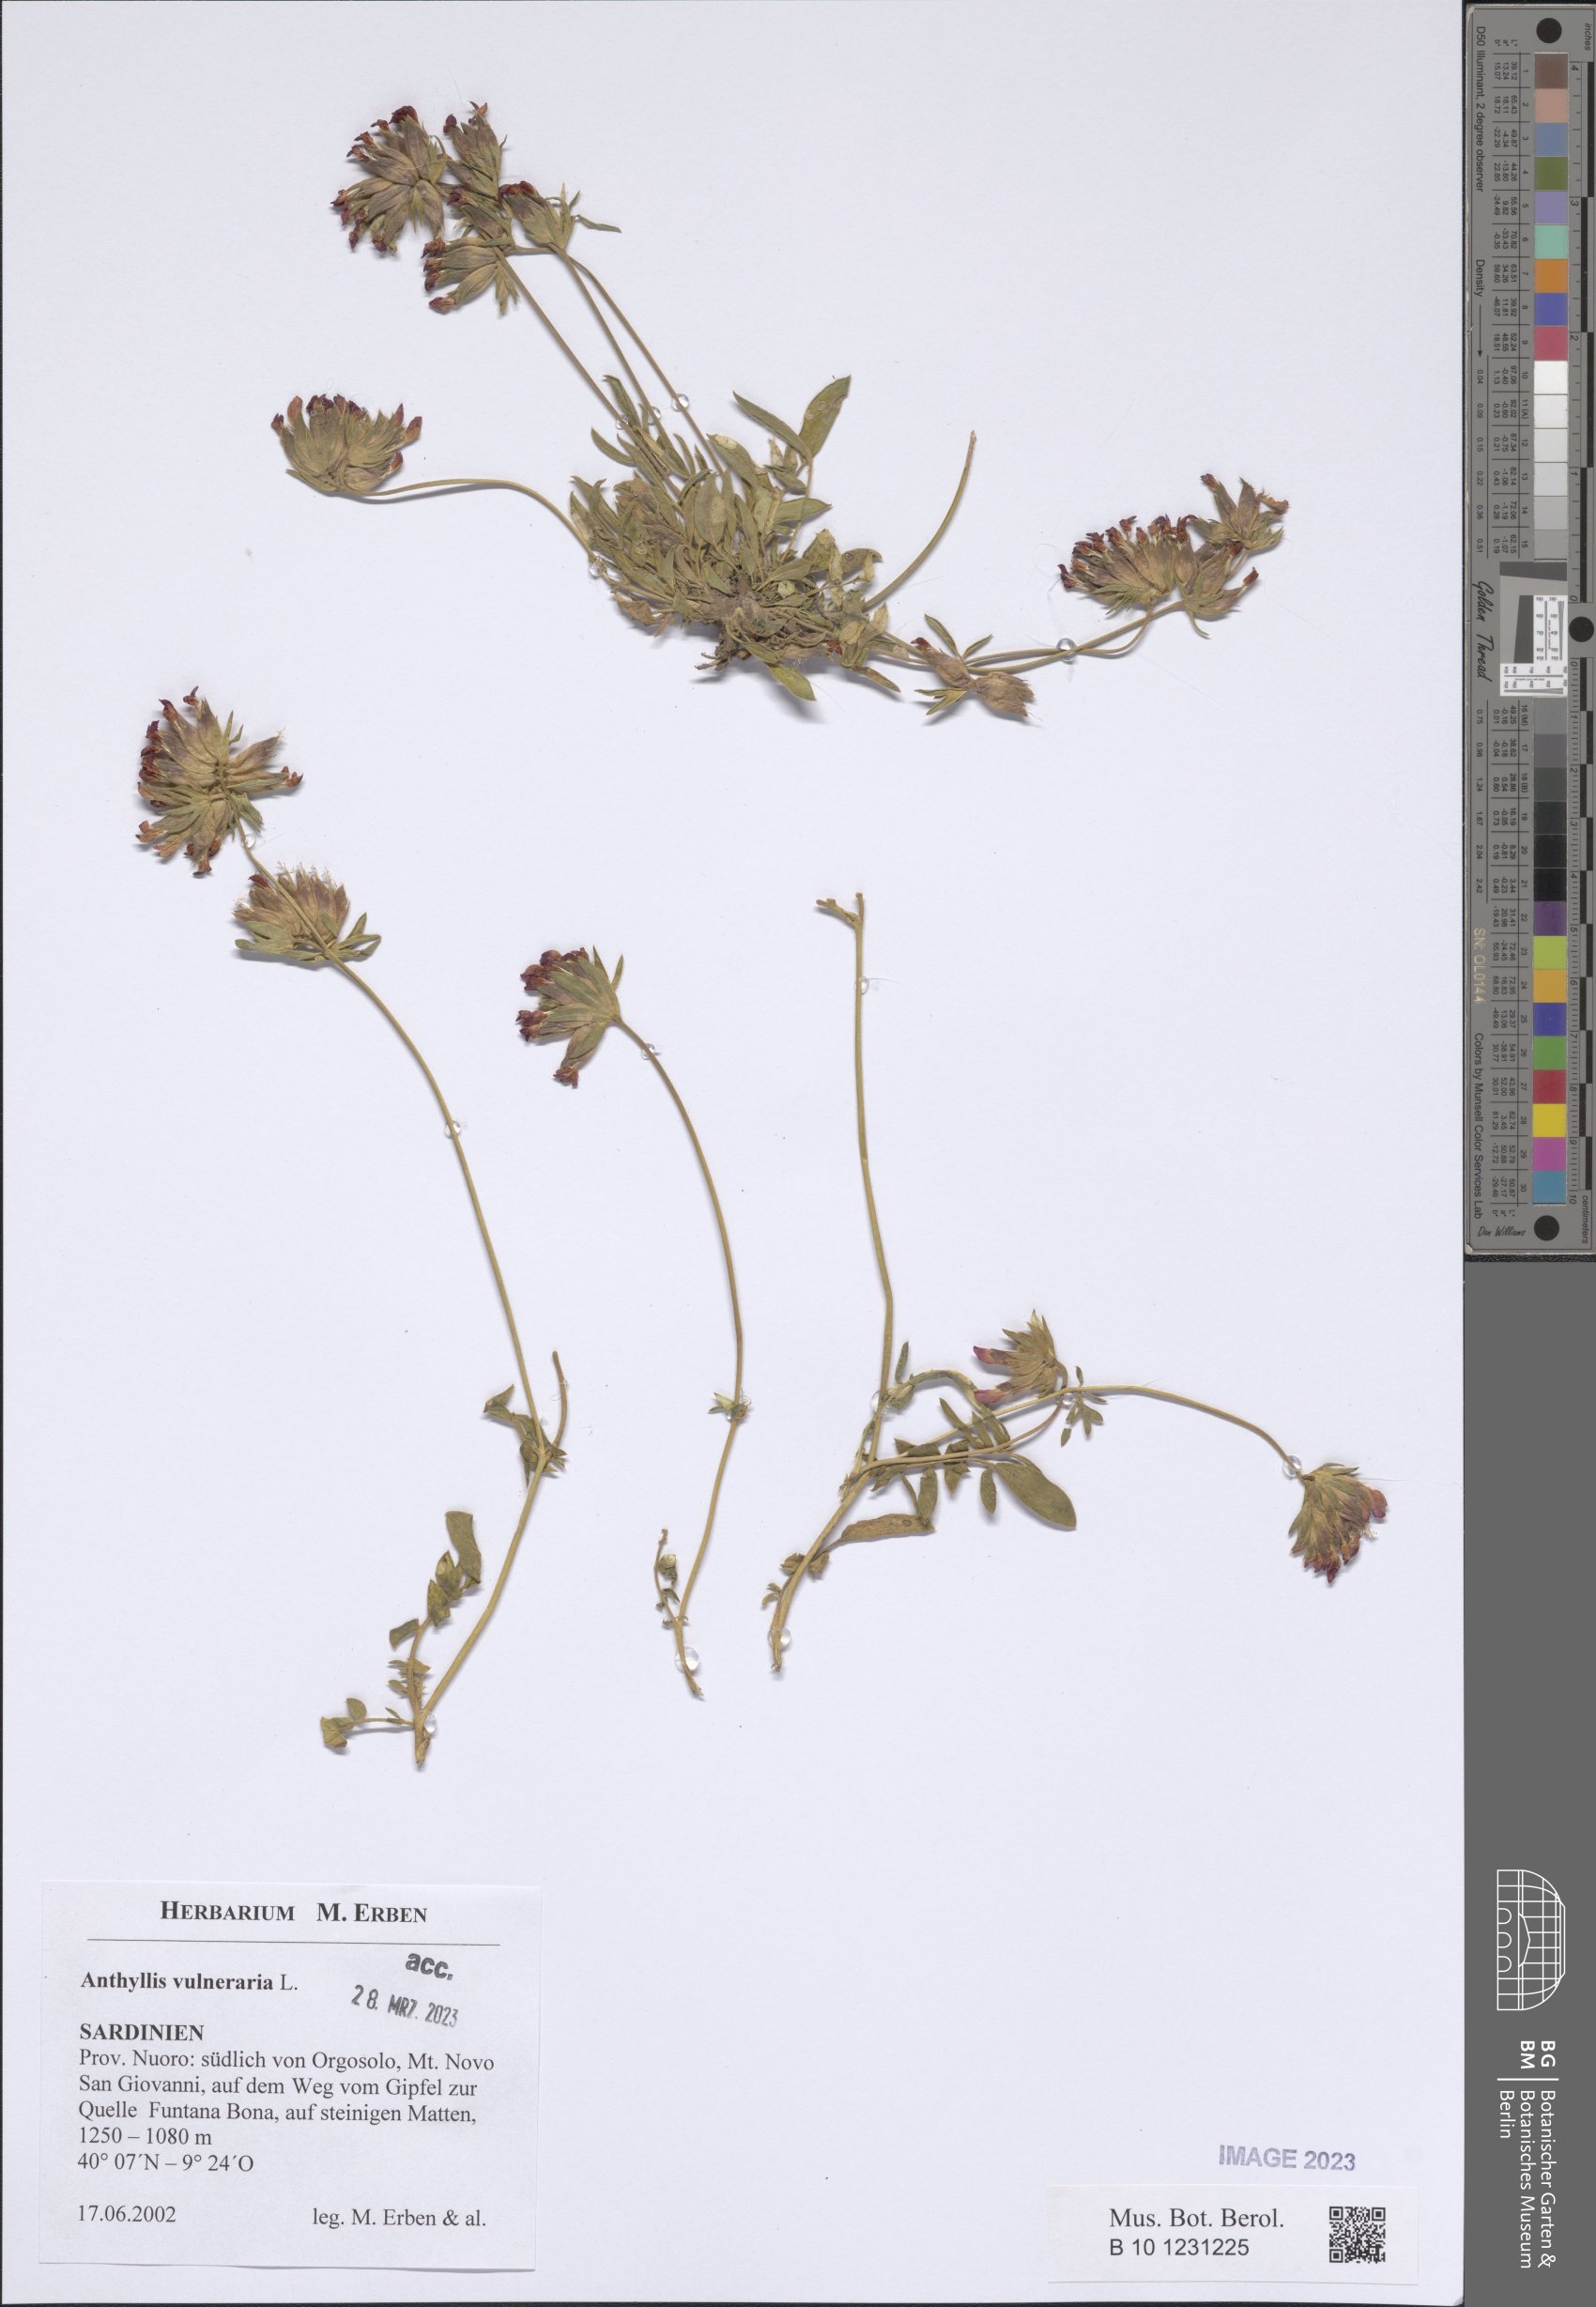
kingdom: Plantae
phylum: Tracheophyta
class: Magnoliopsida
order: Fabales
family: Fabaceae
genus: Anthyllis
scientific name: Anthyllis vulneraria
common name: Kidney vetch
